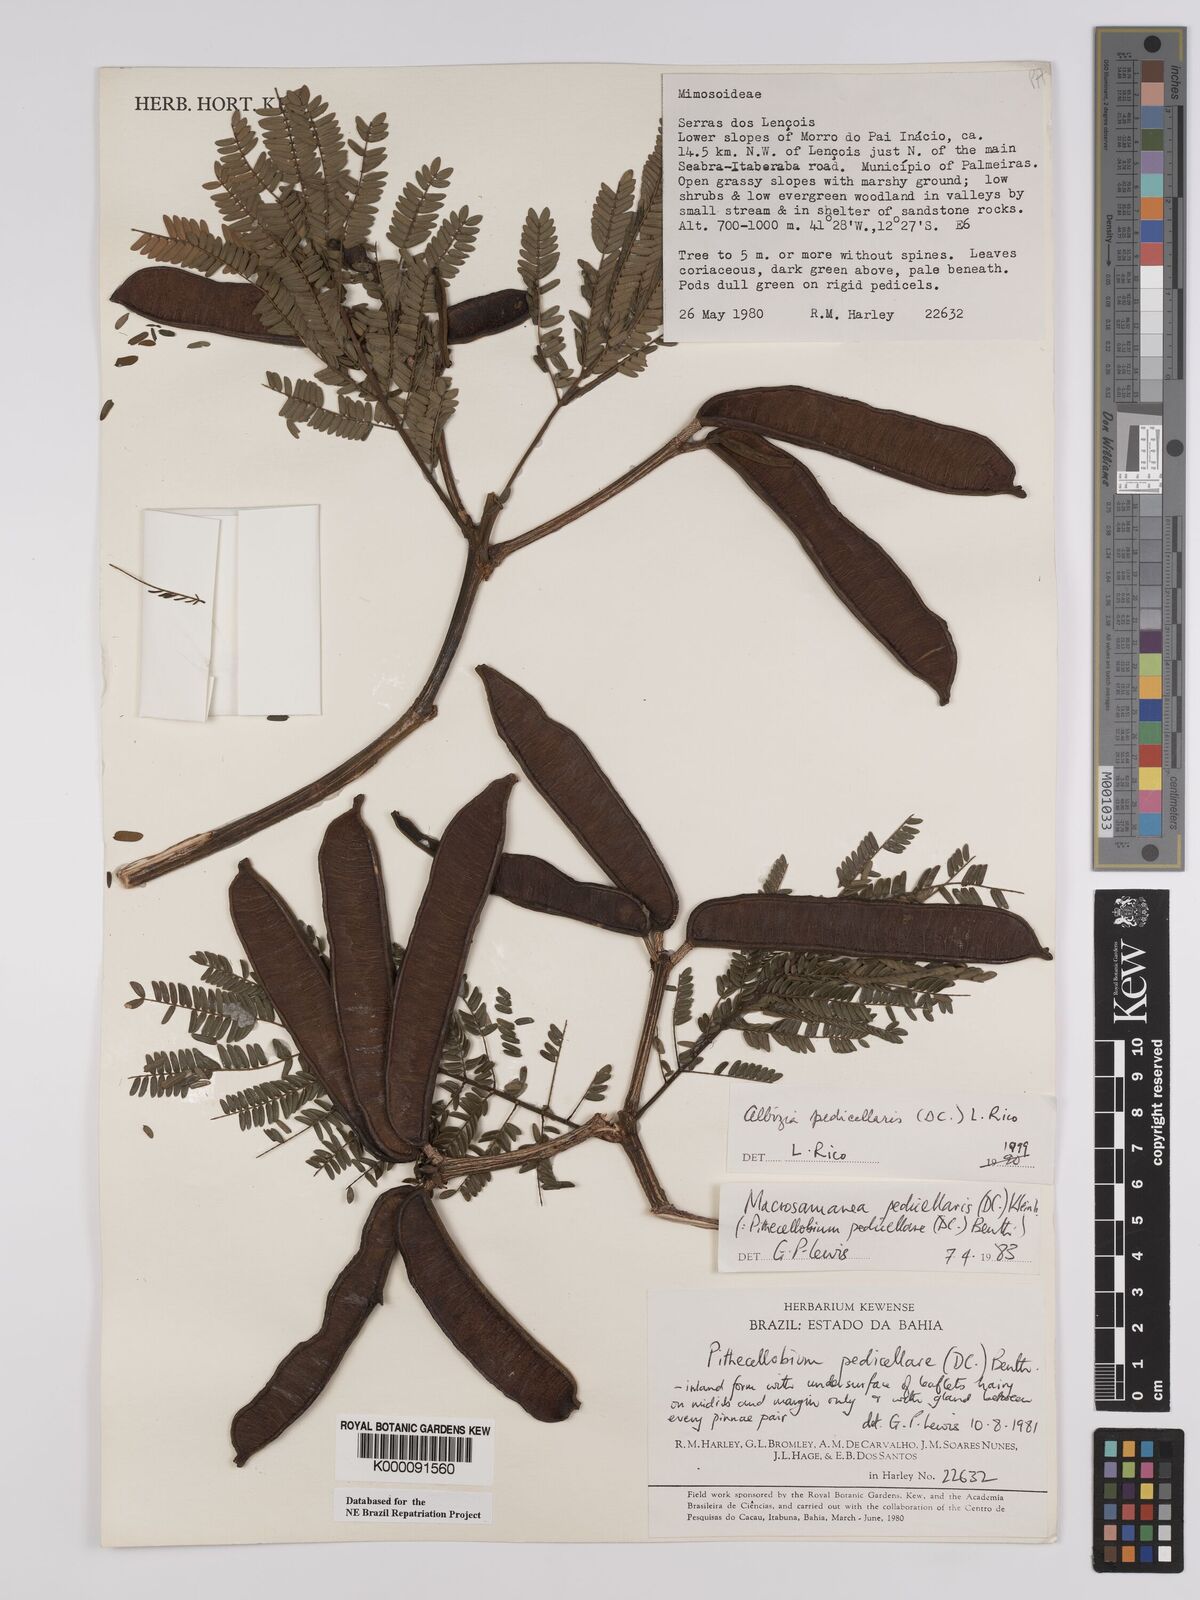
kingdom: Plantae
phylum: Tracheophyta
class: Magnoliopsida
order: Fabales
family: Fabaceae
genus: Balizia
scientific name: Balizia pedicellaris
